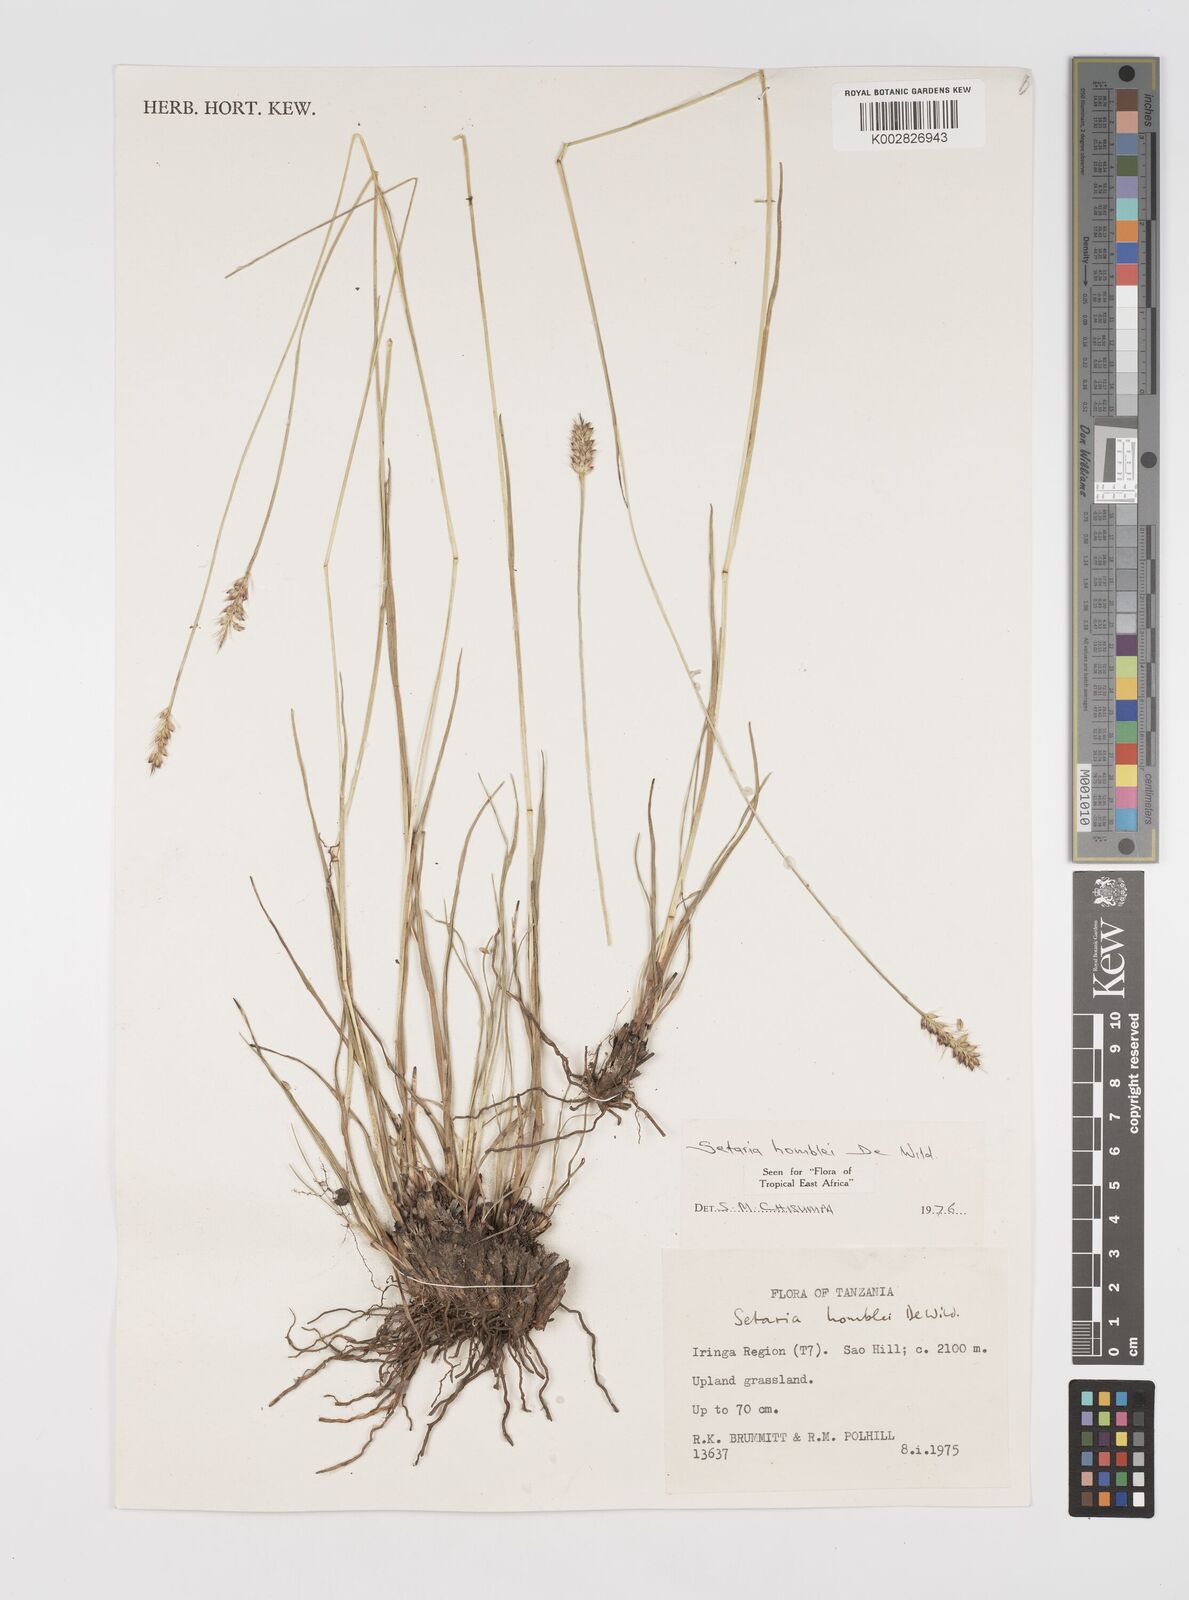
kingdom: Plantae
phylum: Tracheophyta
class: Liliopsida
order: Poales
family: Poaceae
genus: Setaria
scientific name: Setaria sphacelata
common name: African bristlegrass
